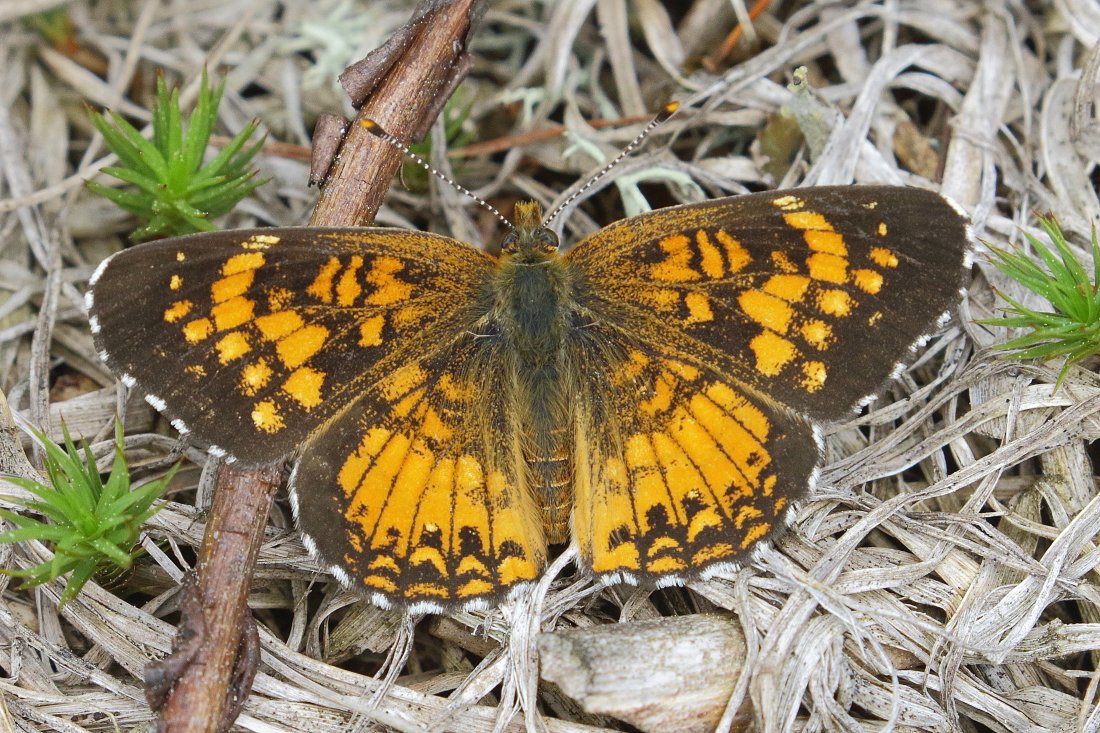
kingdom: Animalia
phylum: Arthropoda
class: Insecta
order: Lepidoptera
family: Nymphalidae
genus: Chlosyne
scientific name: Chlosyne harrisii
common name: Harris's Checkerspot
